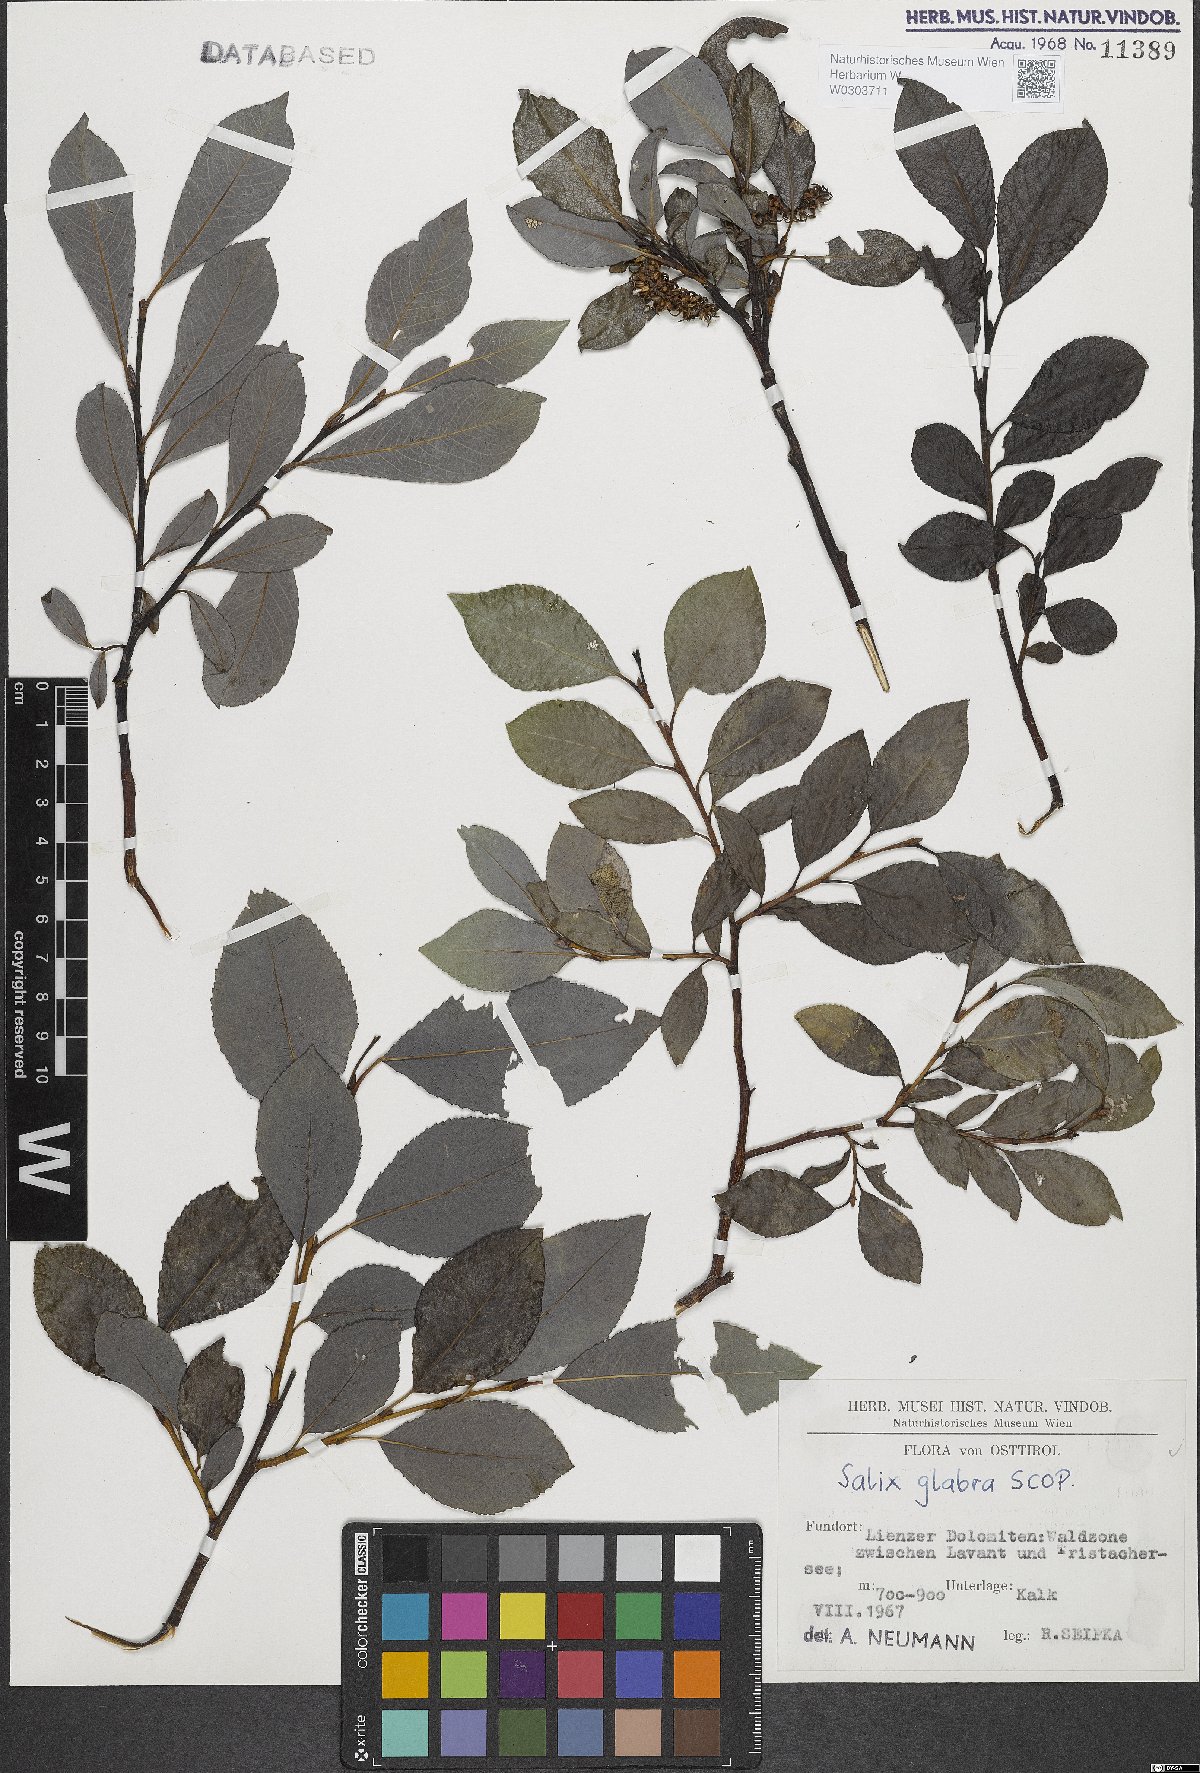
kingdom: Plantae
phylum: Tracheophyta
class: Magnoliopsida
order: Malpighiales
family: Salicaceae
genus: Salix
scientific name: Salix glabra
